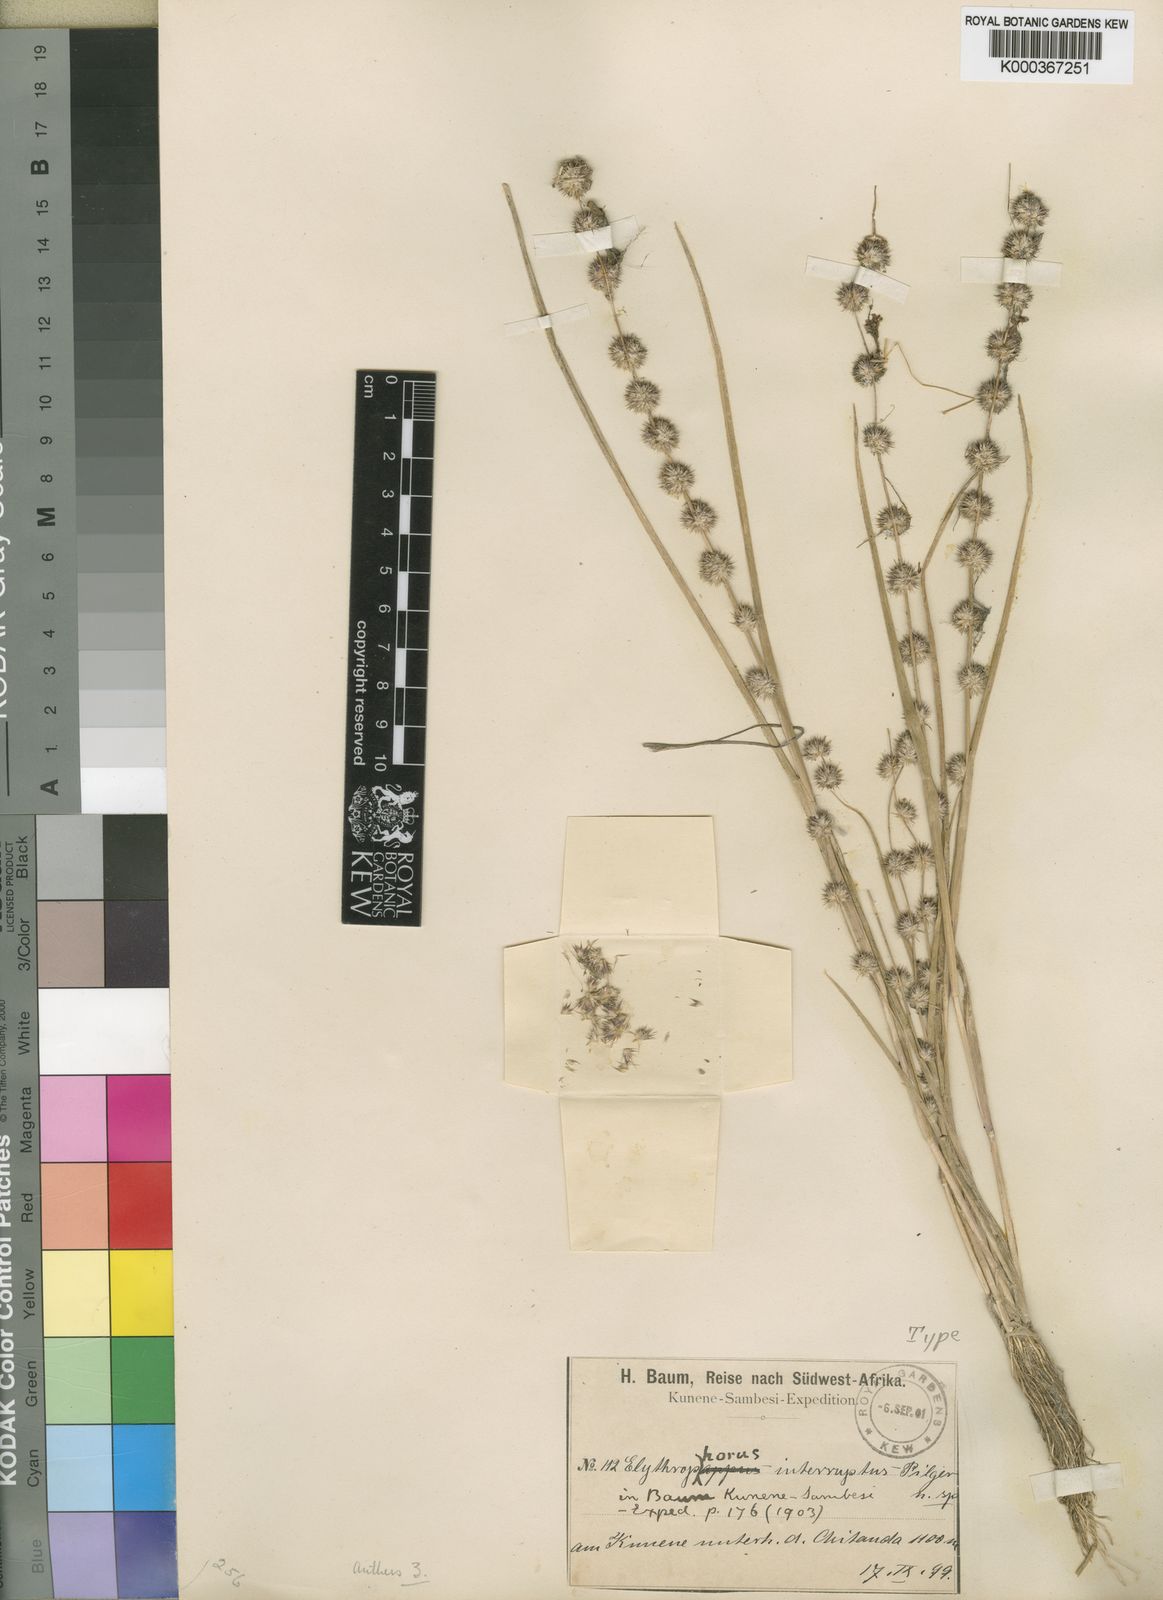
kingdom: Plantae
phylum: Tracheophyta
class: Liliopsida
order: Poales
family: Poaceae
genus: Elytrophorus
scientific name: Elytrophorus globularis
